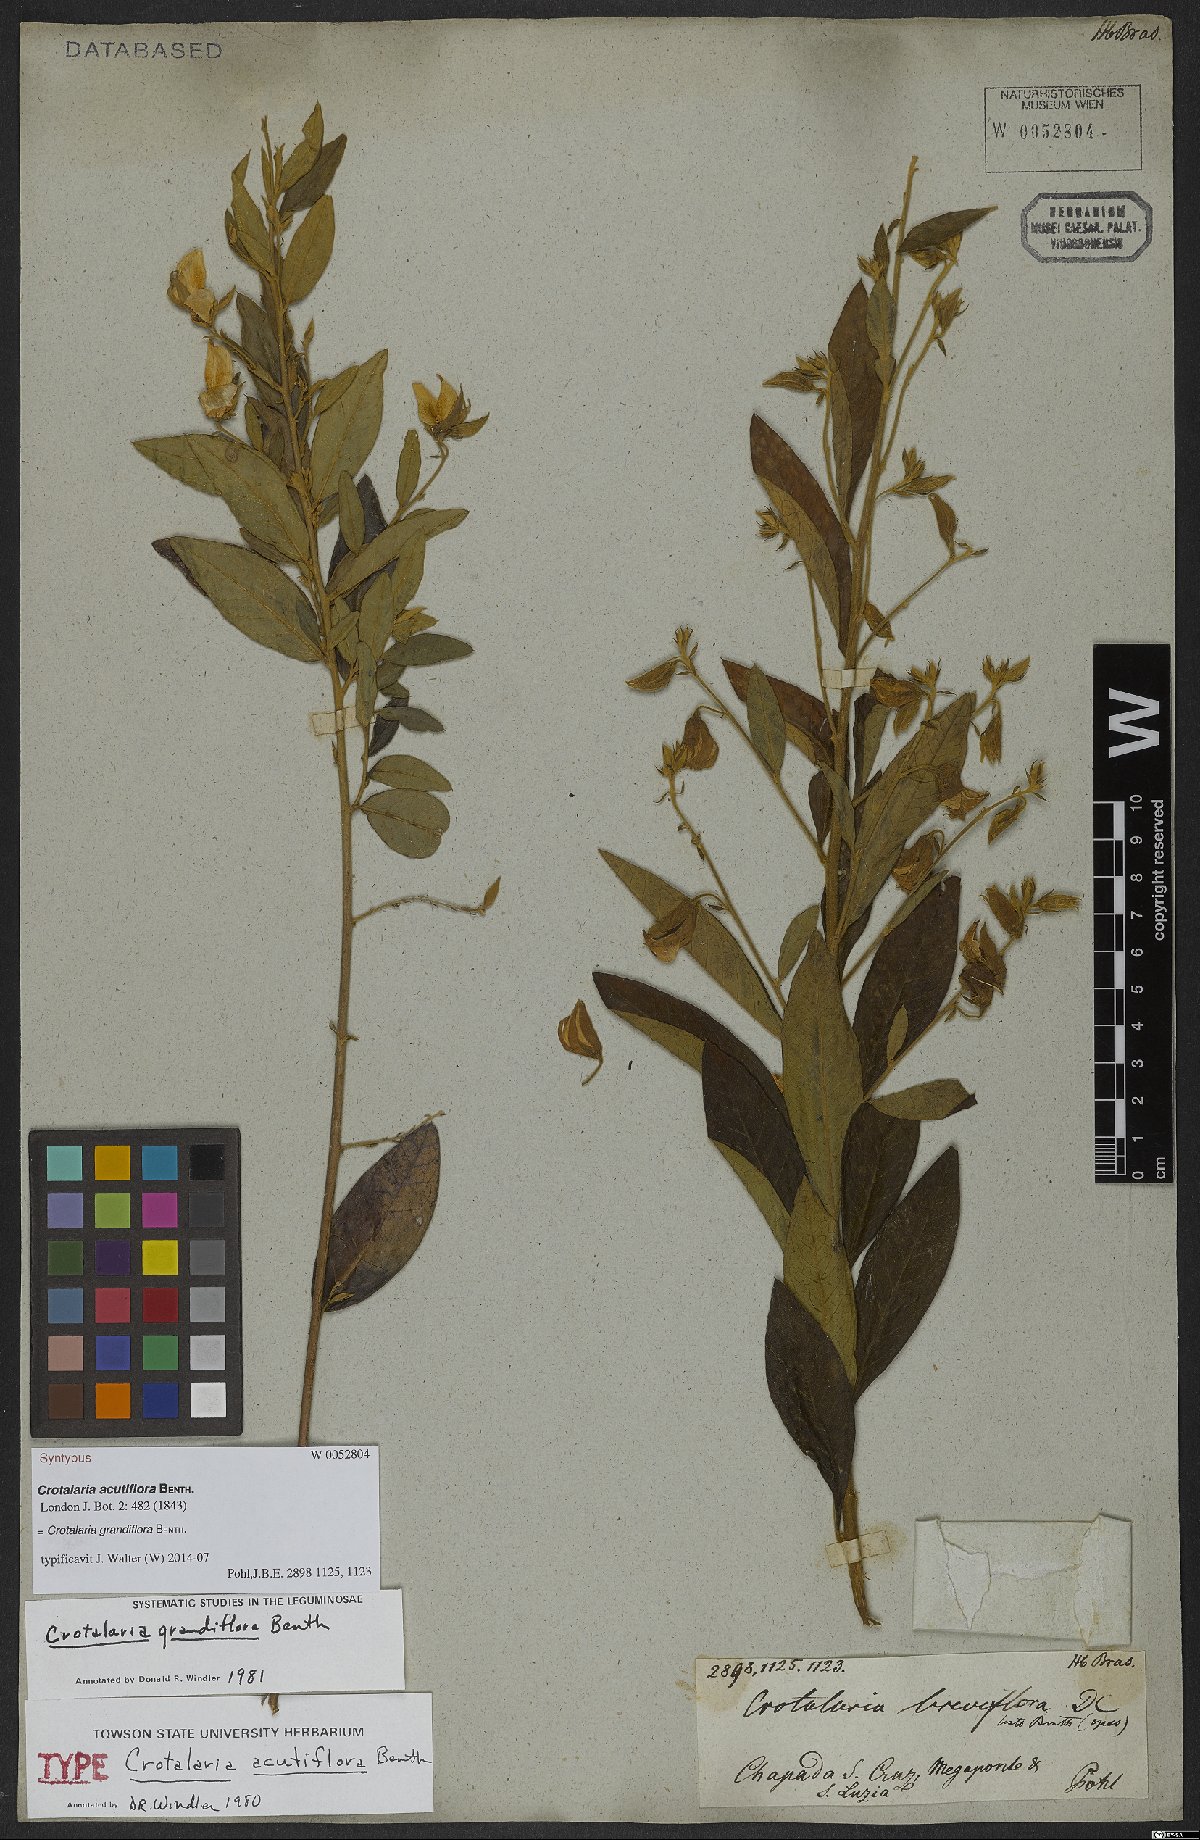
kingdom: Plantae
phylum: Tracheophyta
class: Magnoliopsida
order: Fabales
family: Fabaceae
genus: Crotalaria
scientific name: Crotalaria grandiflora
